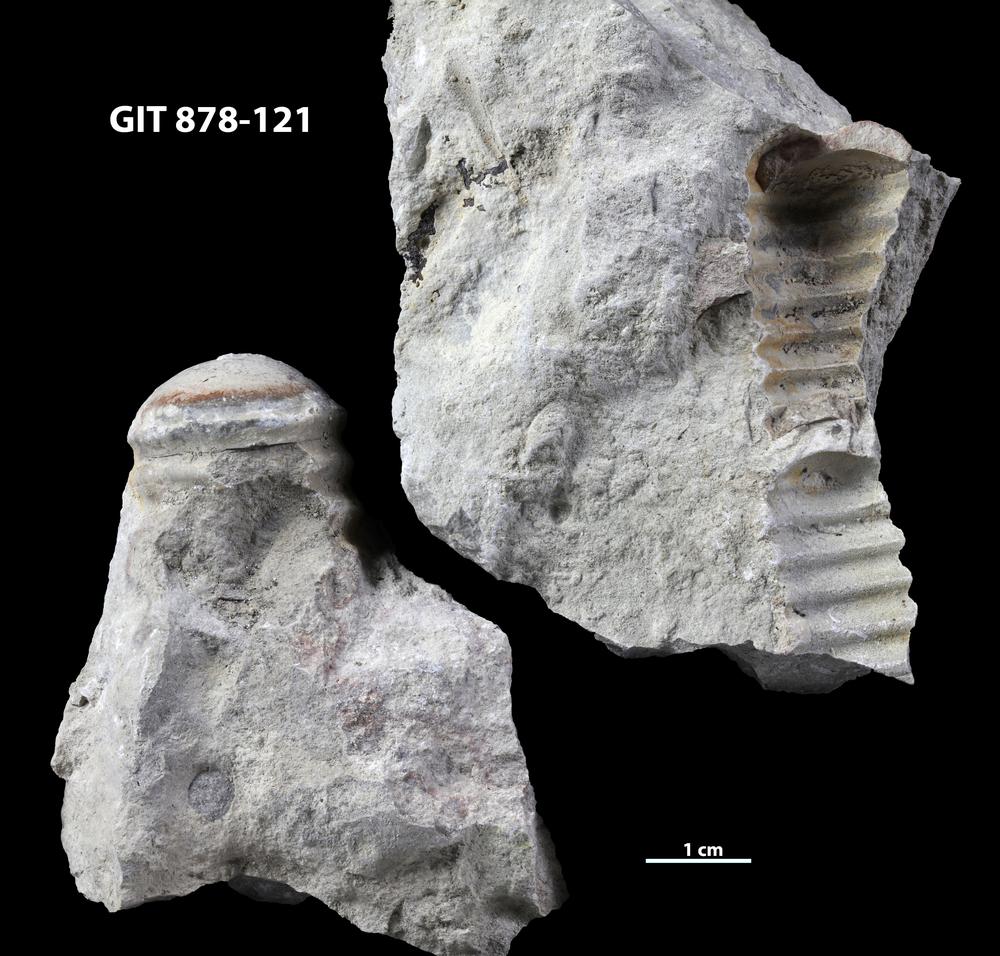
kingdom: Animalia
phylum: Mollusca
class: Cephalopoda
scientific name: Cephalopoda
